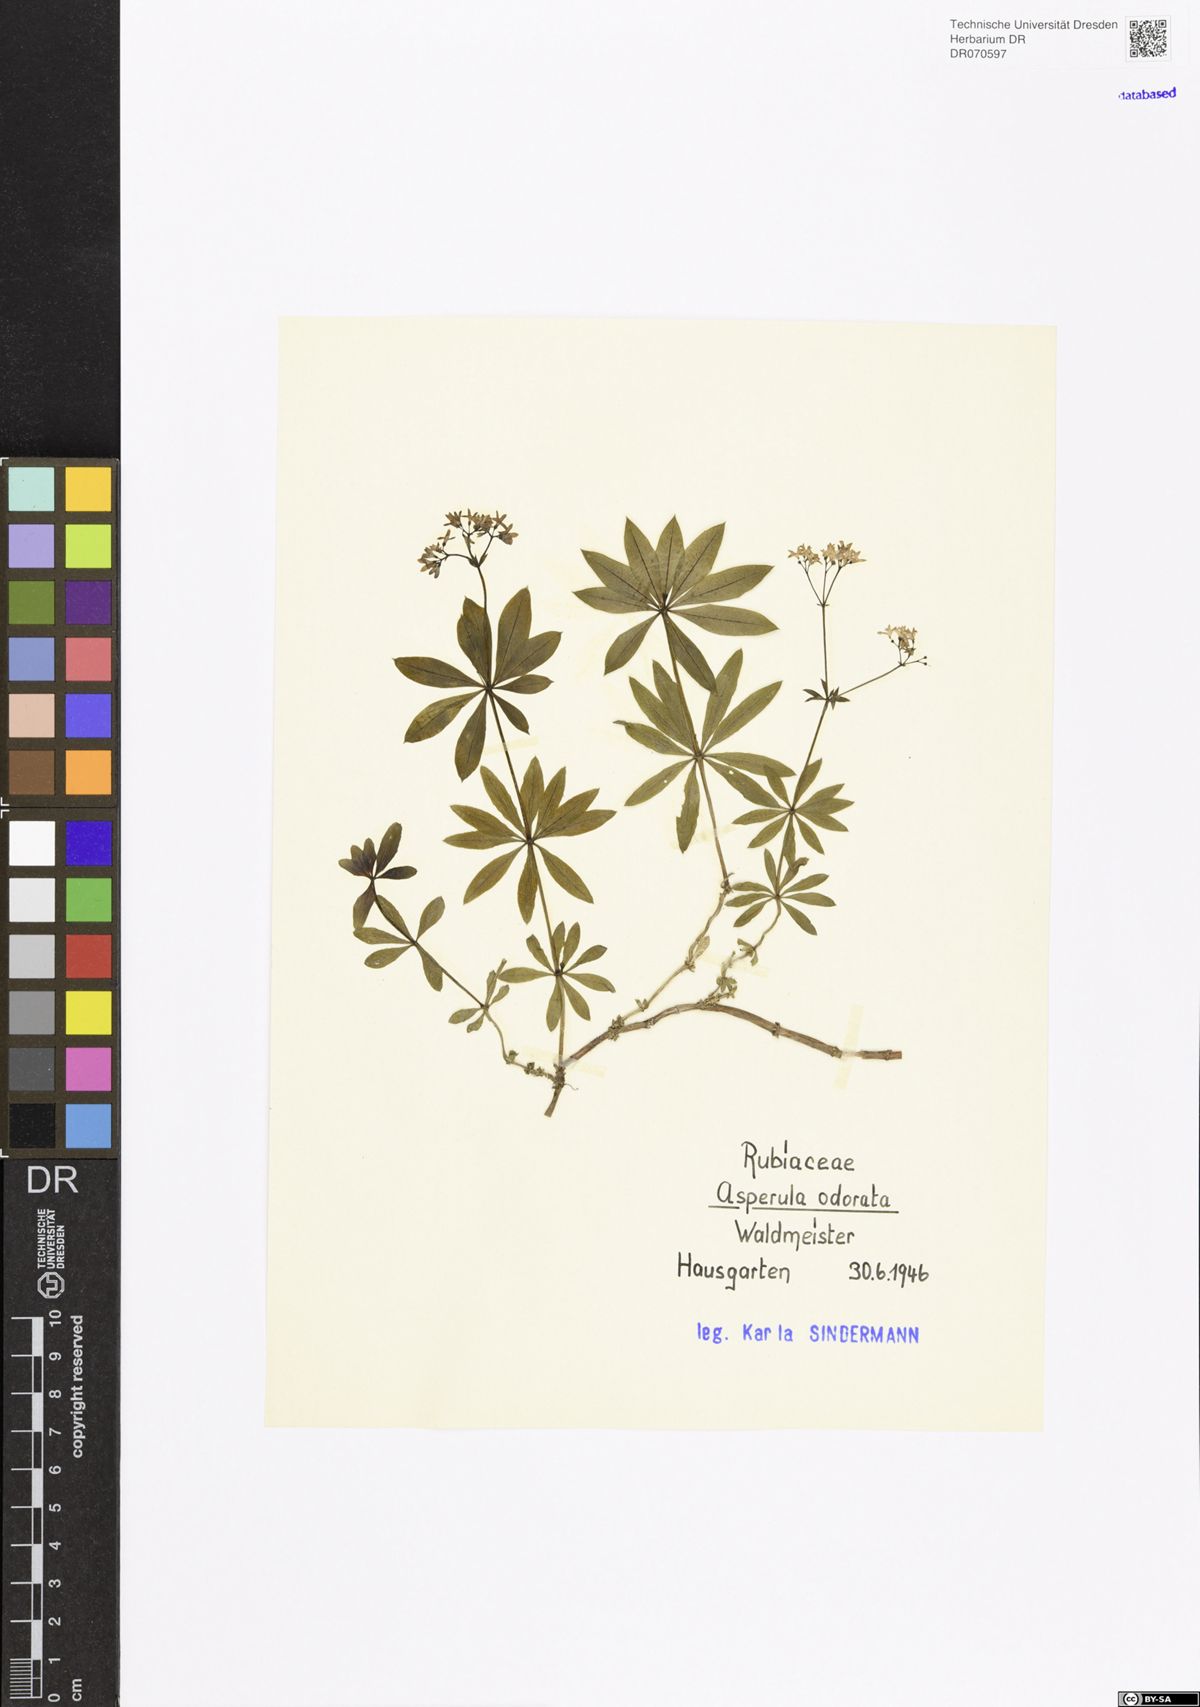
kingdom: Plantae
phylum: Tracheophyta
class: Magnoliopsida
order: Gentianales
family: Rubiaceae
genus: Galium
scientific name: Galium odoratum
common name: Sweet woodruff
